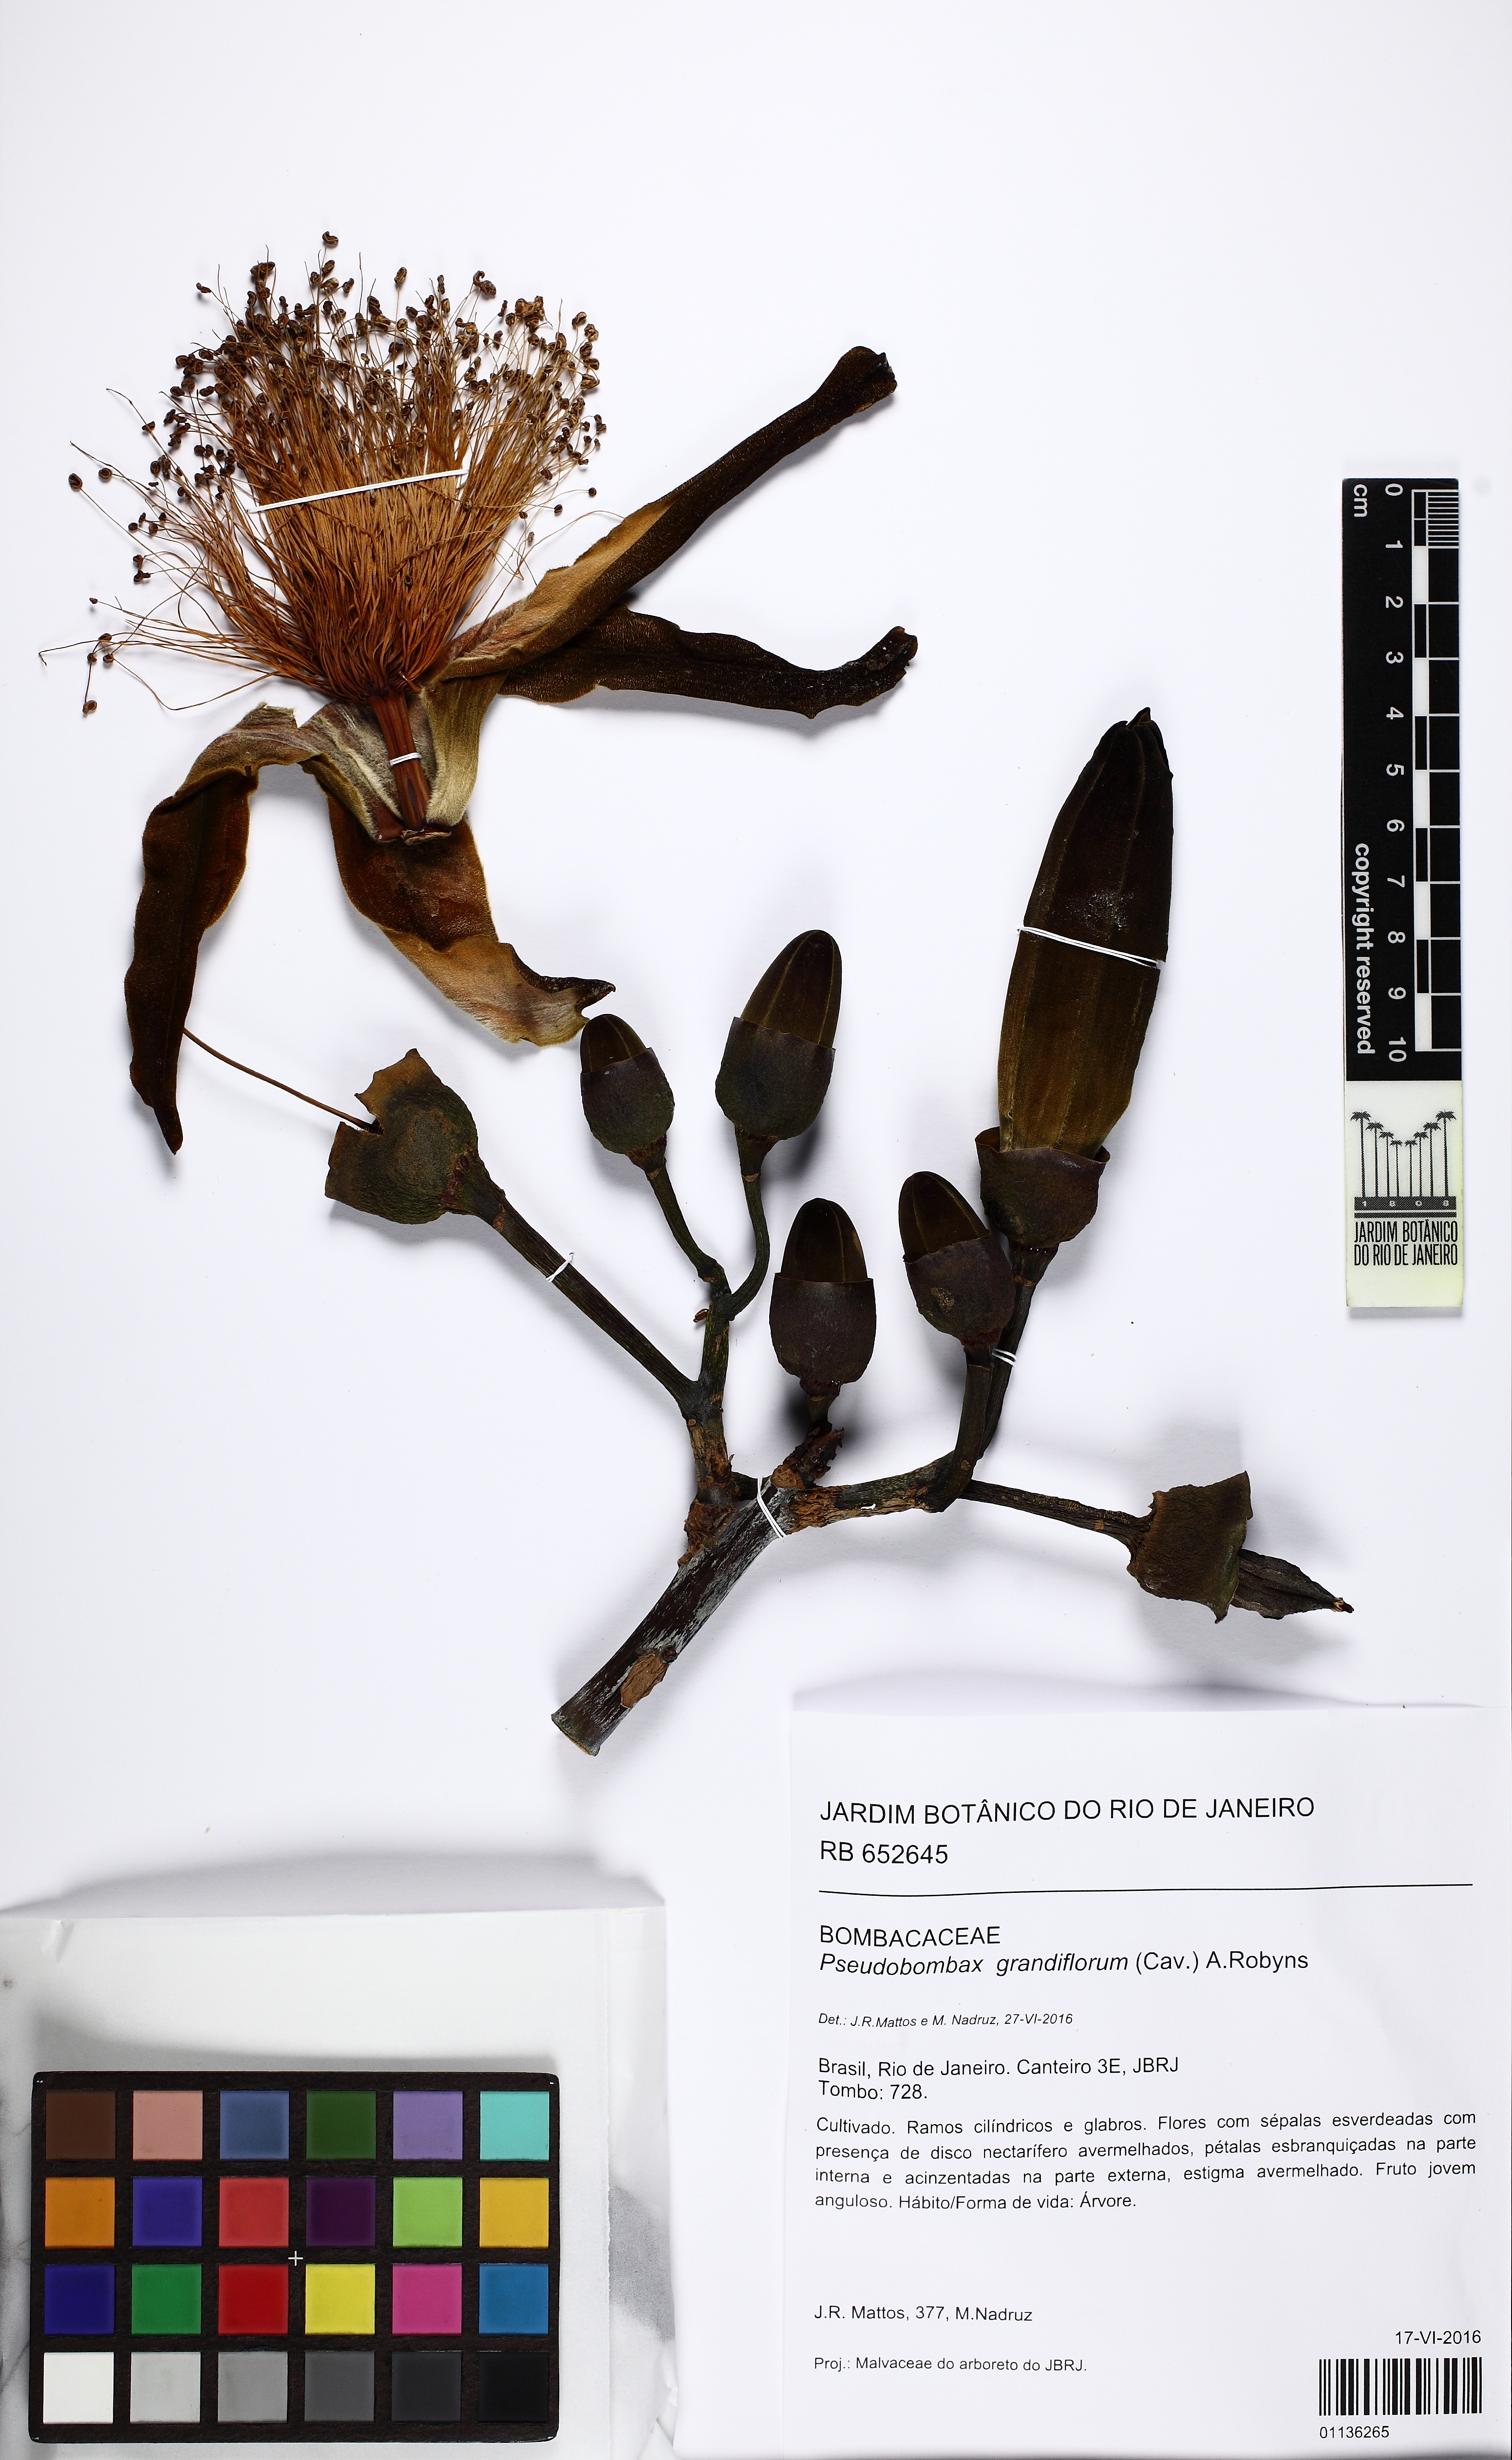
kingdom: Plantae
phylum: Tracheophyta
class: Magnoliopsida
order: Malvales
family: Malvaceae
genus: Pseudobombax
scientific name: Pseudobombax grandiflorum
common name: Brazilian shaving-brush-tree
